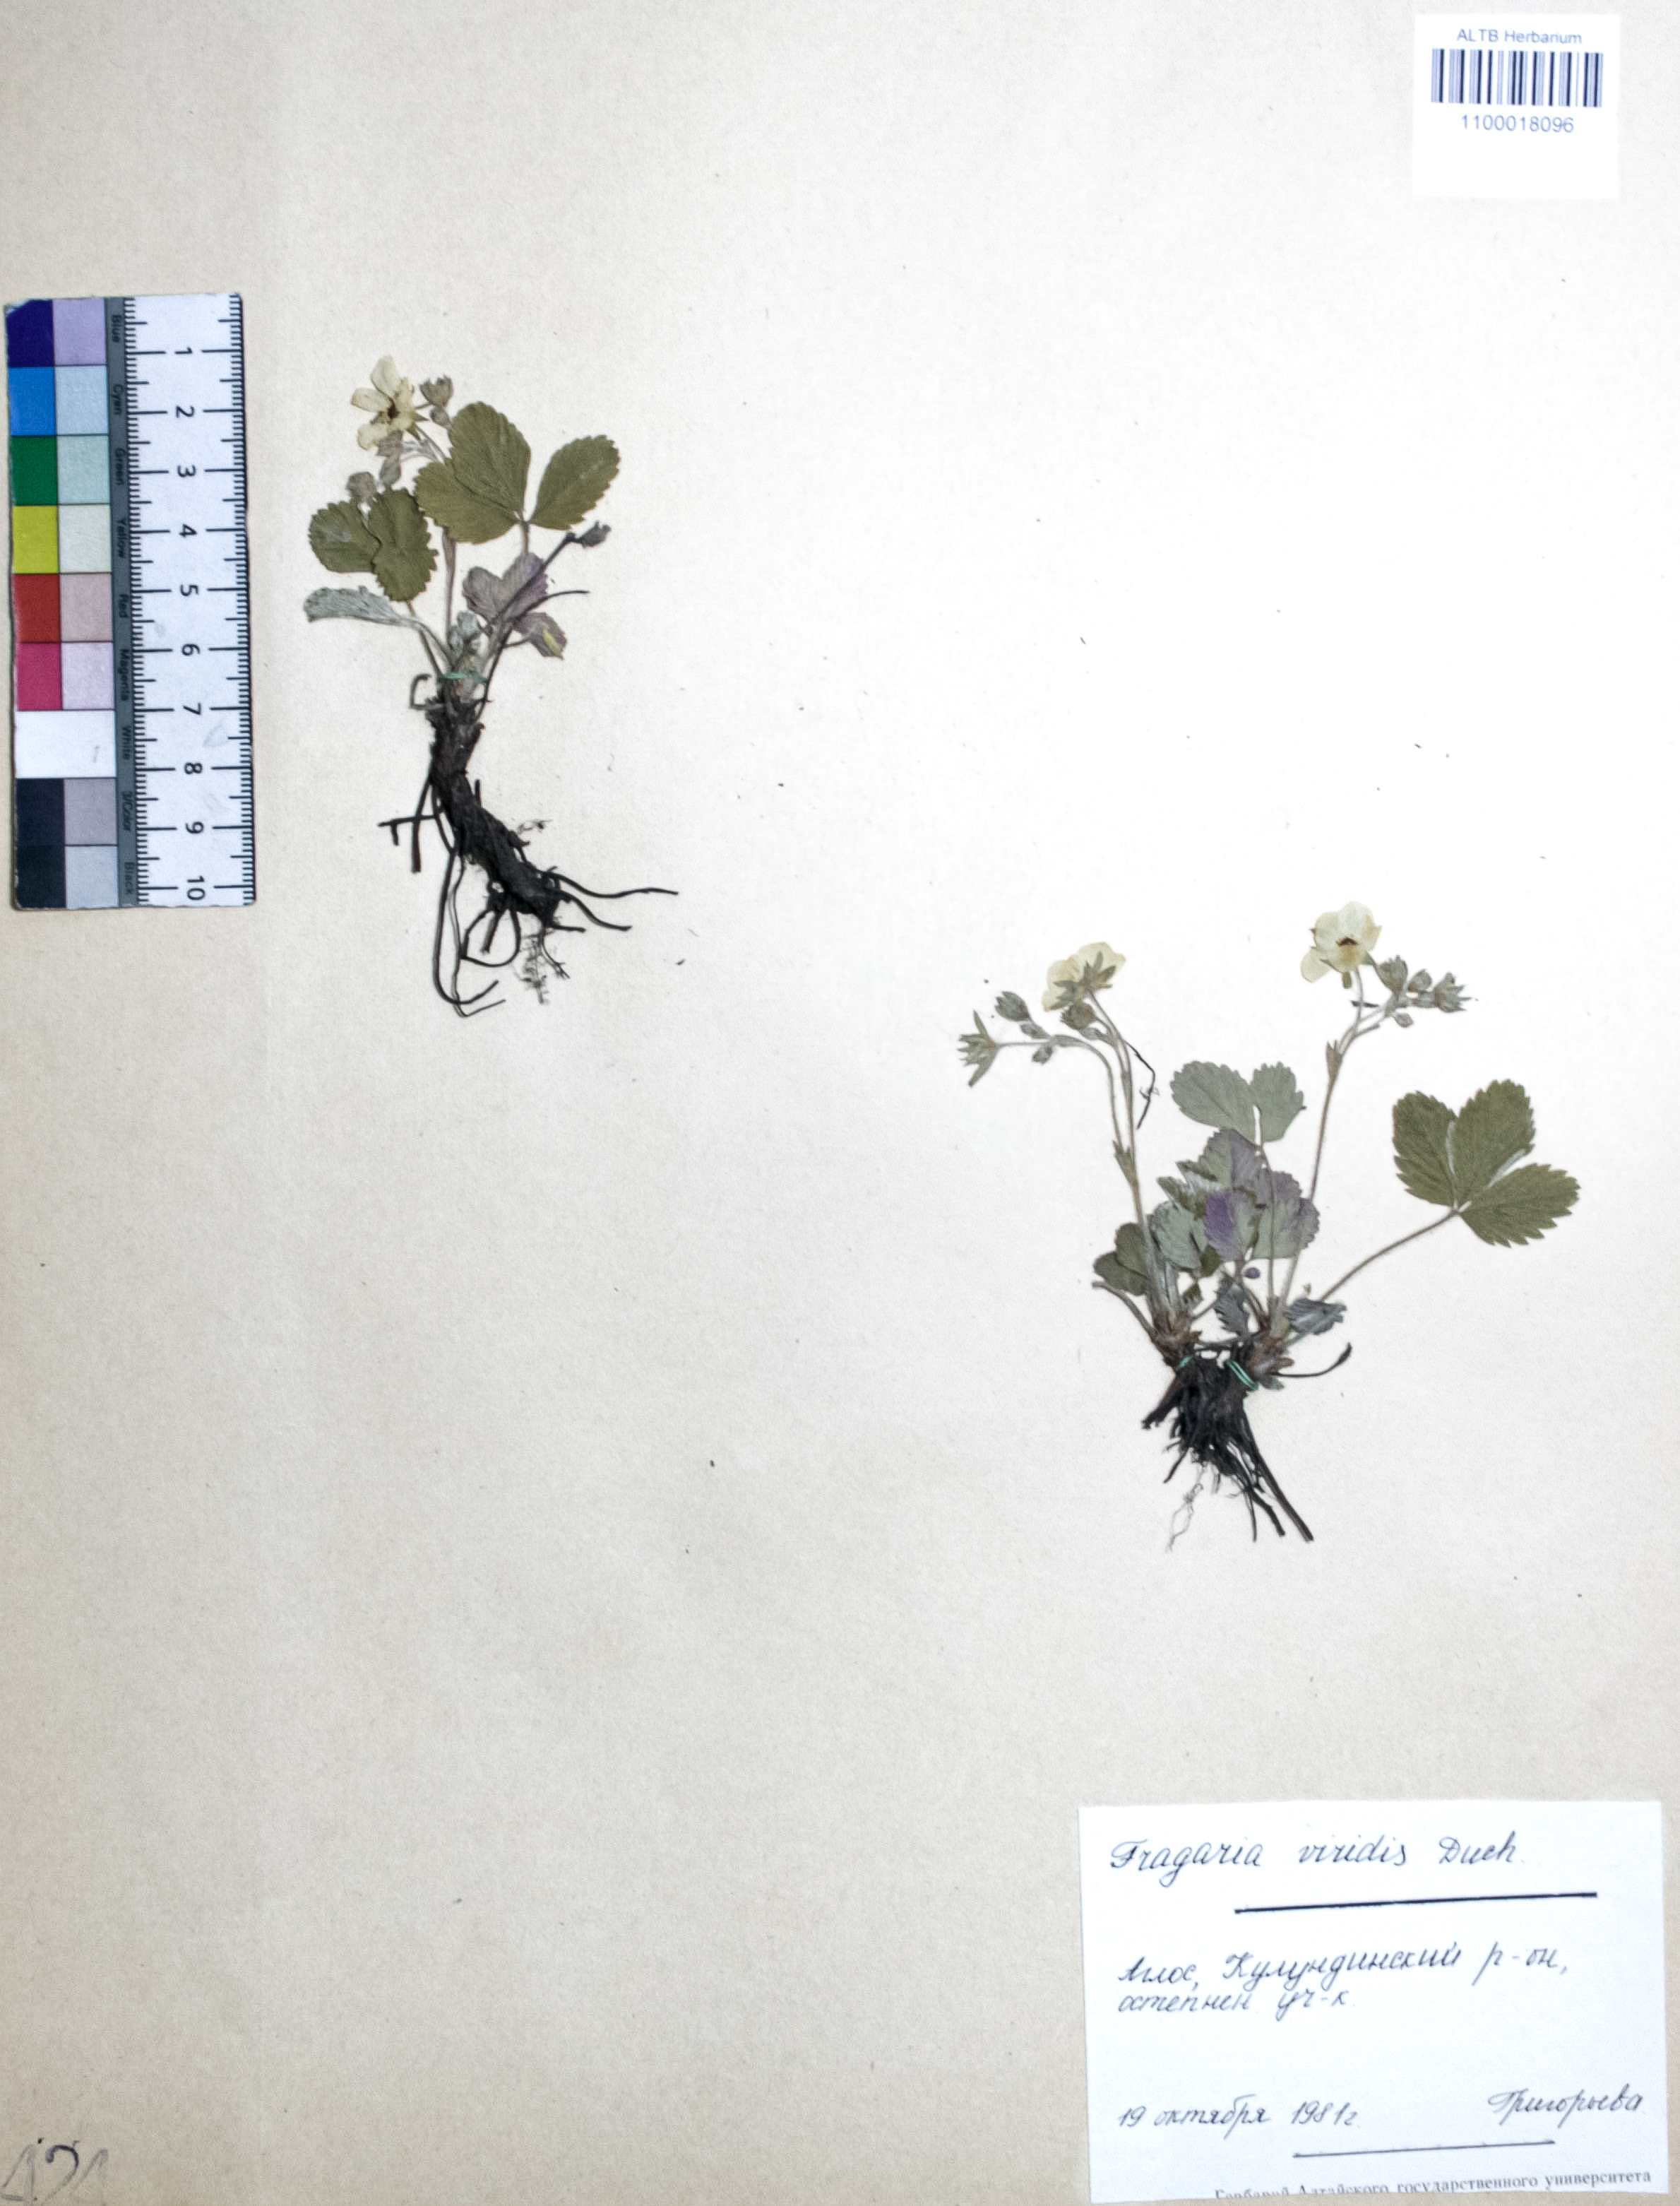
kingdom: Plantae
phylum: Tracheophyta
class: Magnoliopsida
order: Rosales
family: Rosaceae
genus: Fragaria
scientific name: Fragaria viridis
